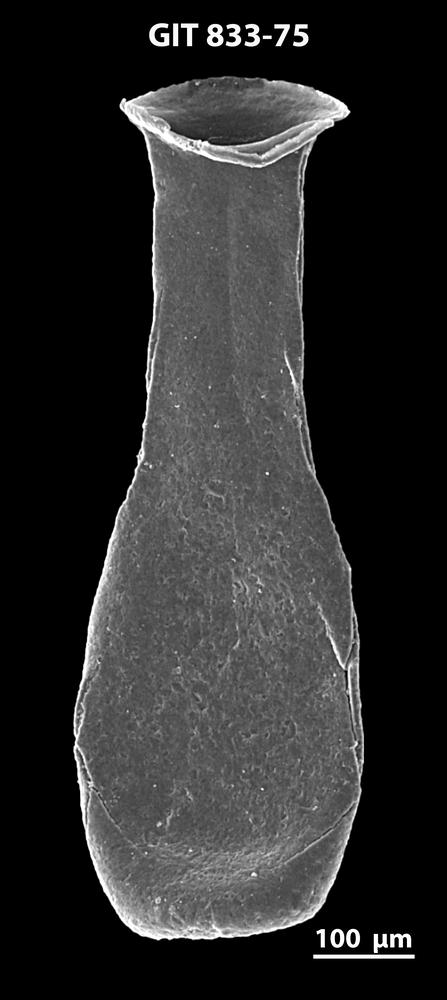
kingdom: Animalia
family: Lagenochitinidae
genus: Lagenochitina
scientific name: Lagenochitina megaesthonica
